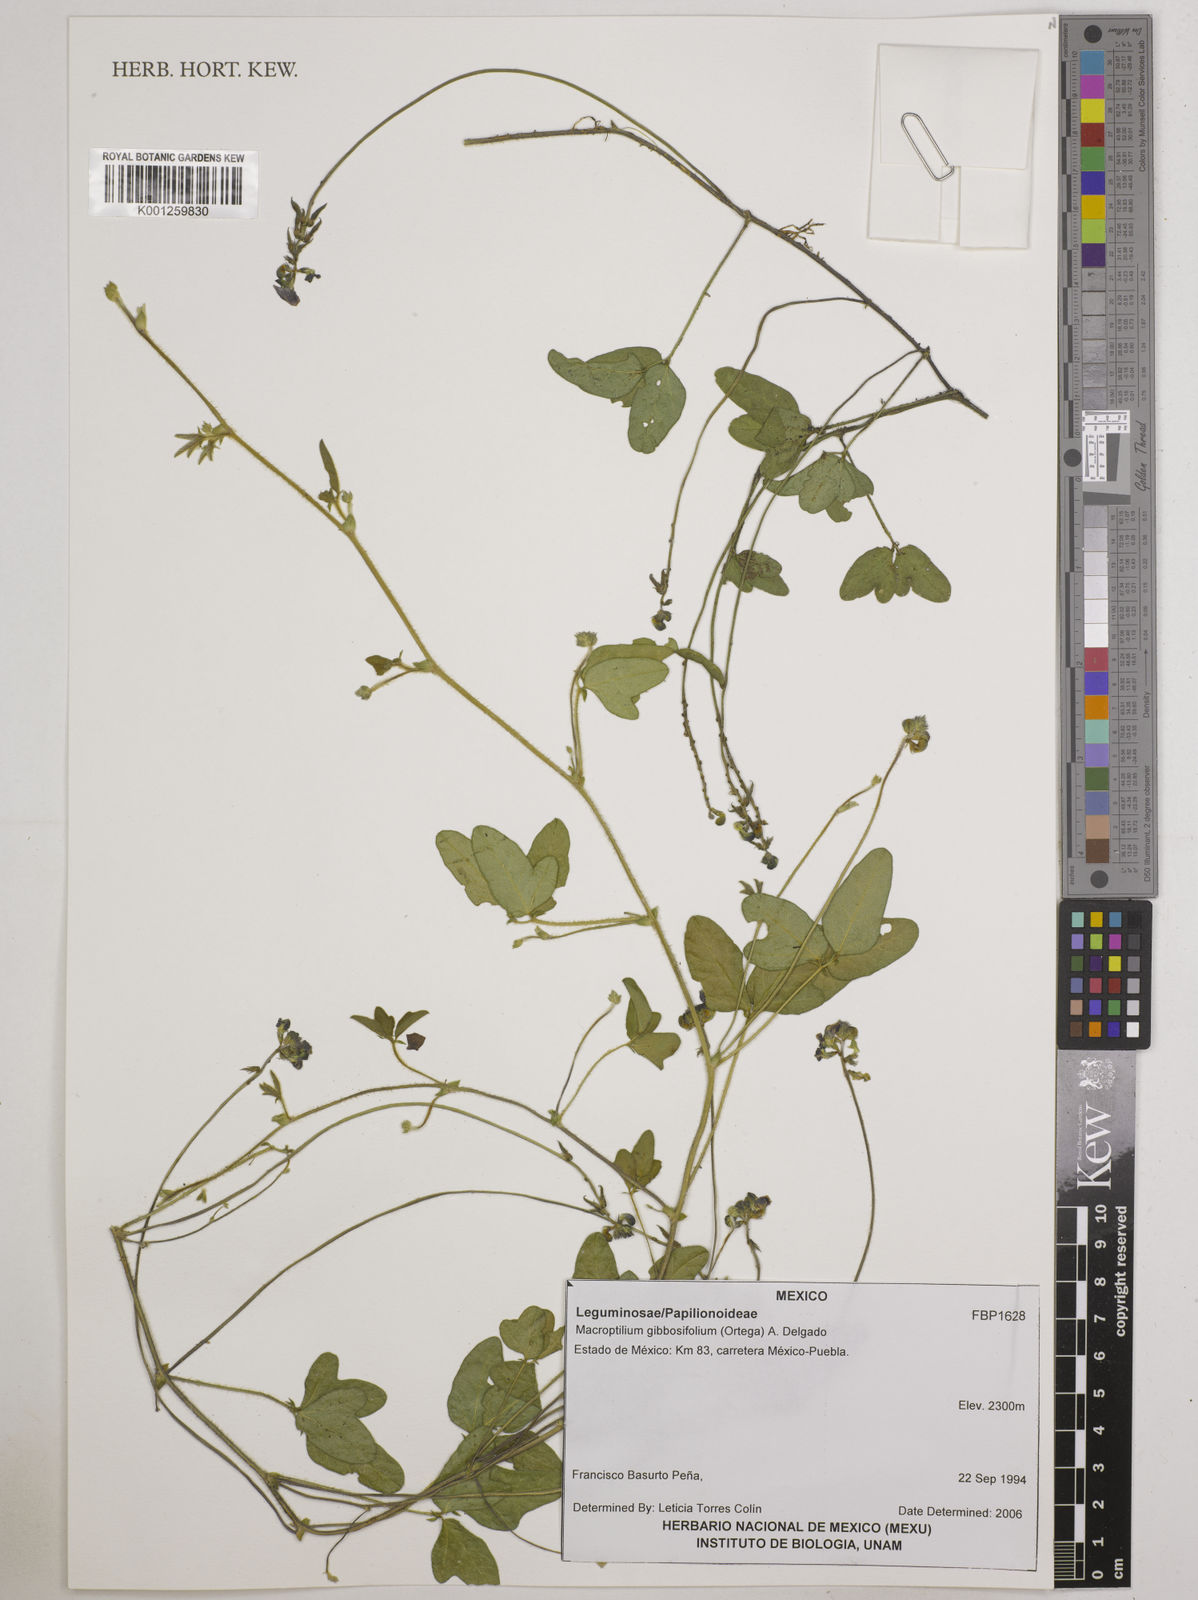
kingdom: Plantae
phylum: Tracheophyta
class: Magnoliopsida
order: Fabales
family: Fabaceae
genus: Macroptilium
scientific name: Macroptilium gibbosifolium
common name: Variableleaf bushbean
